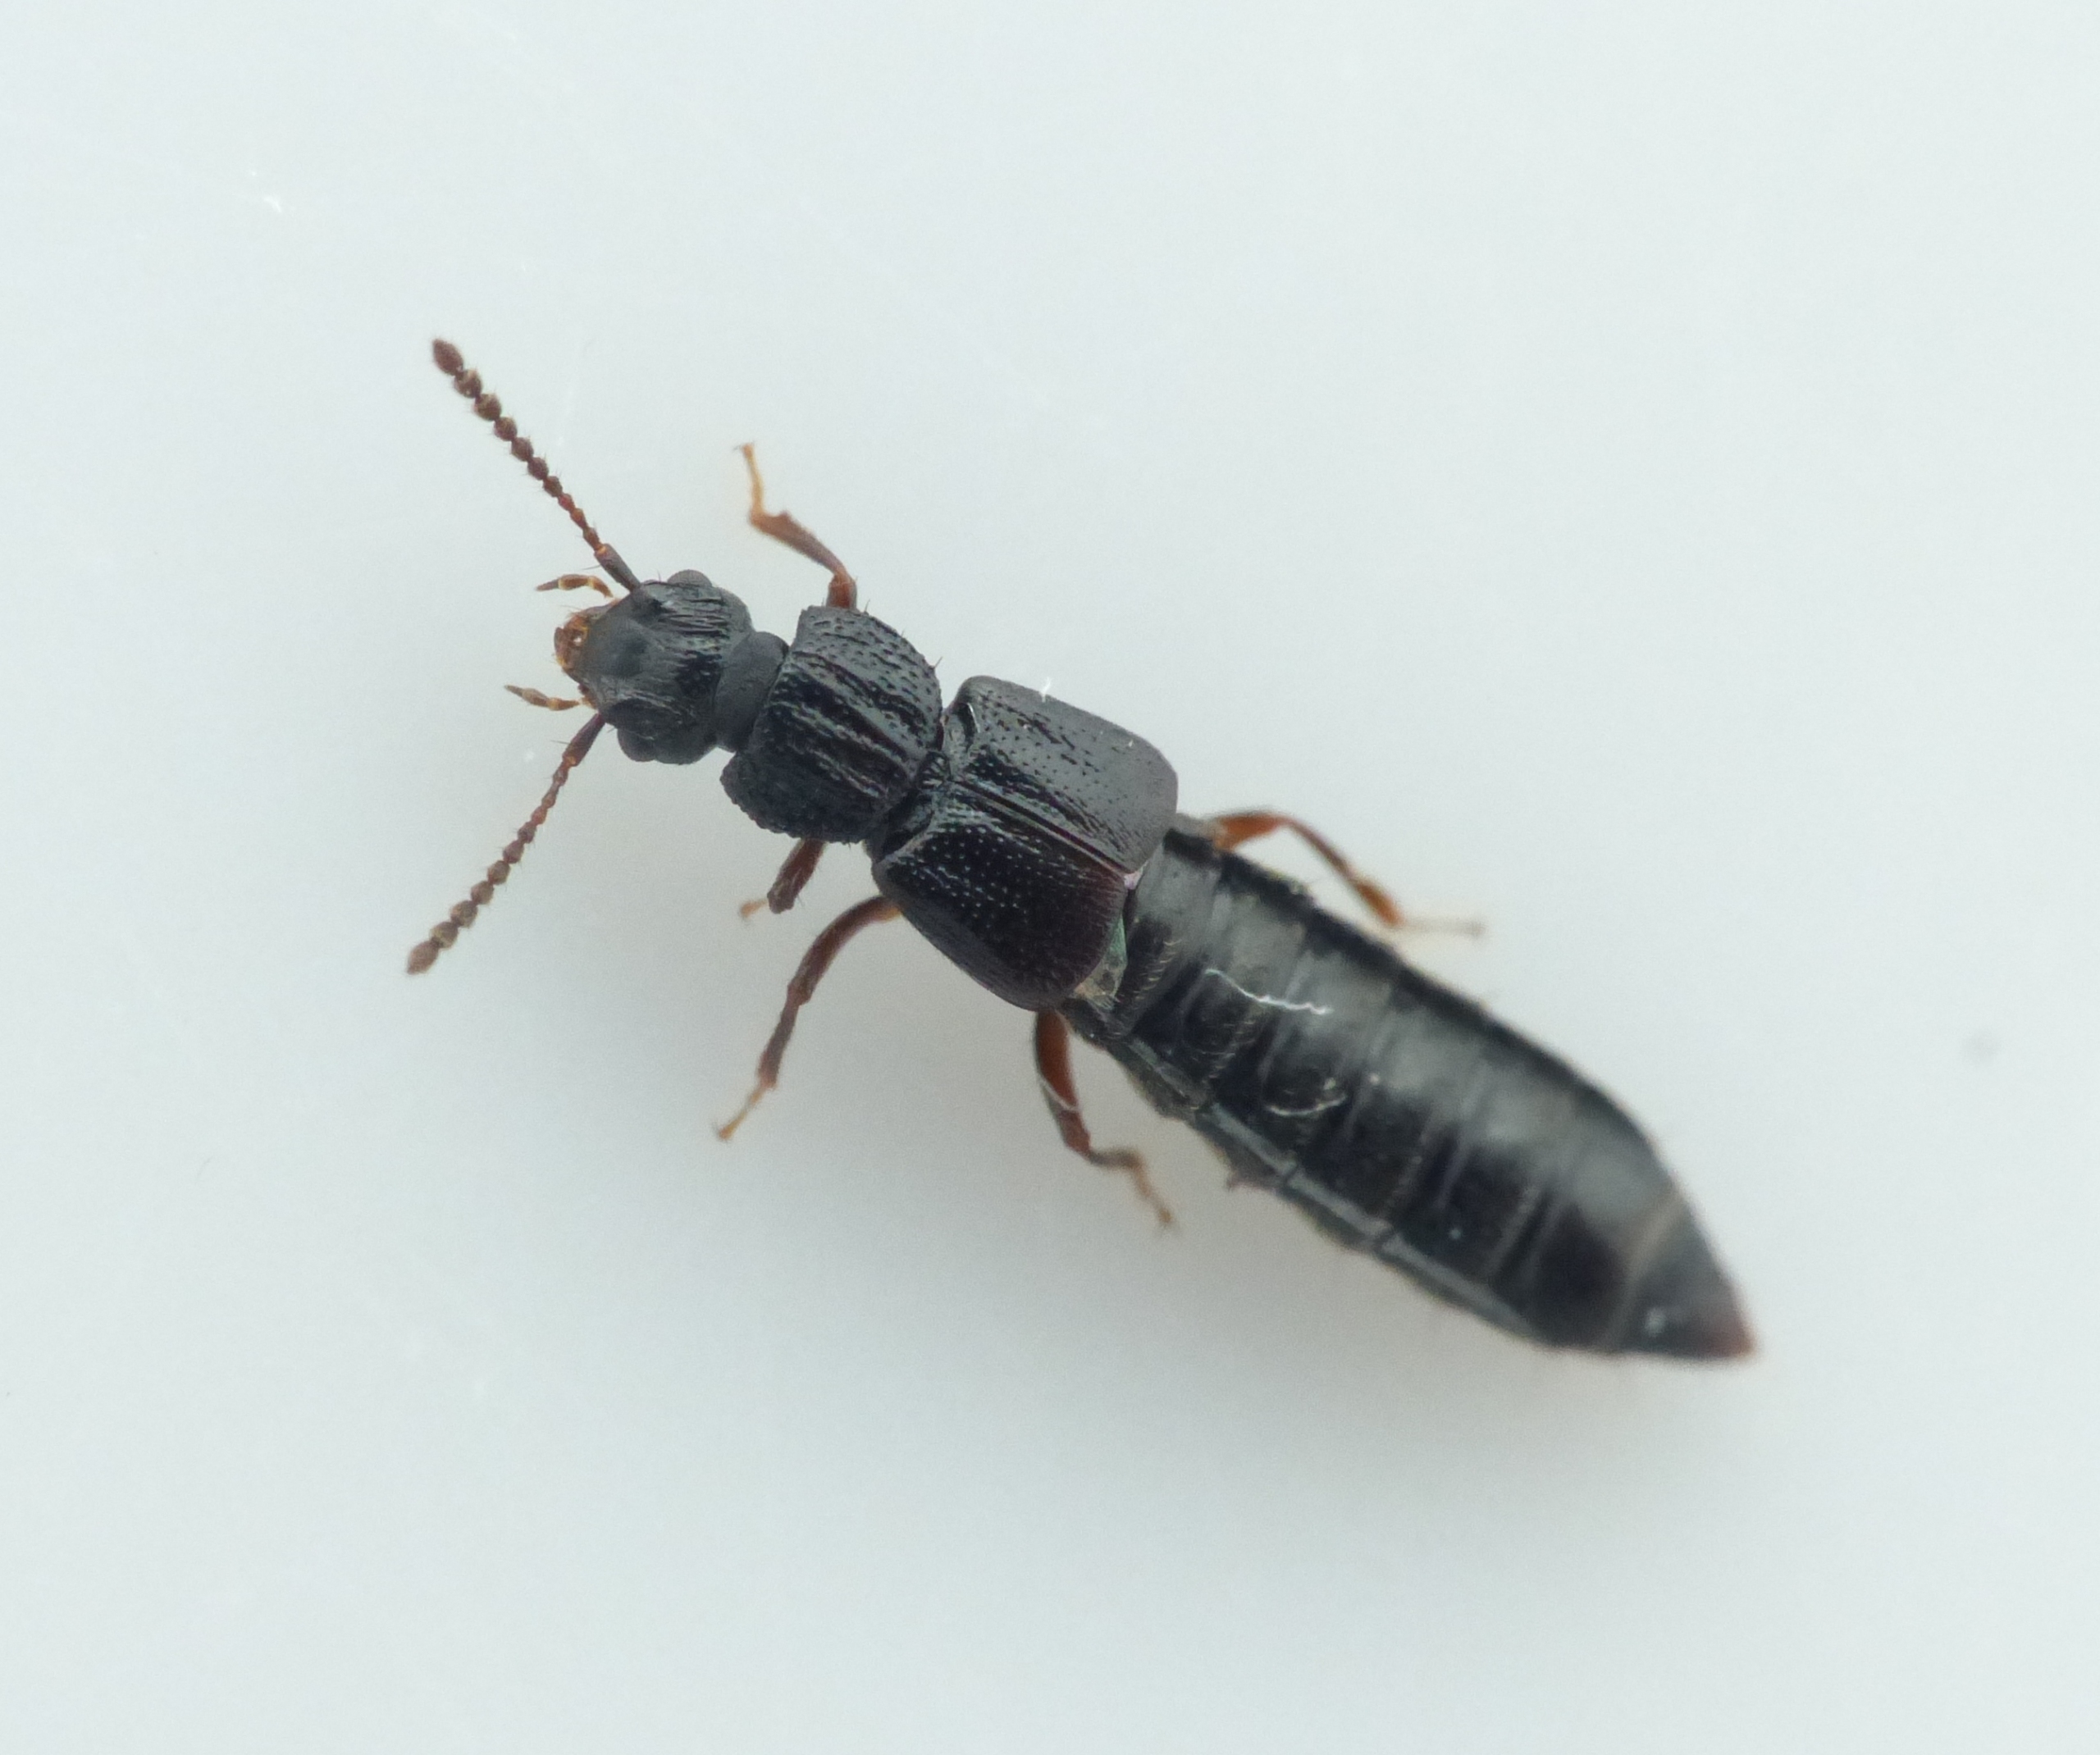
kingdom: Animalia
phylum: Arthropoda
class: Insecta
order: Coleoptera
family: Staphylinidae
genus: Anotylus
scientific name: Anotylus rugosus
